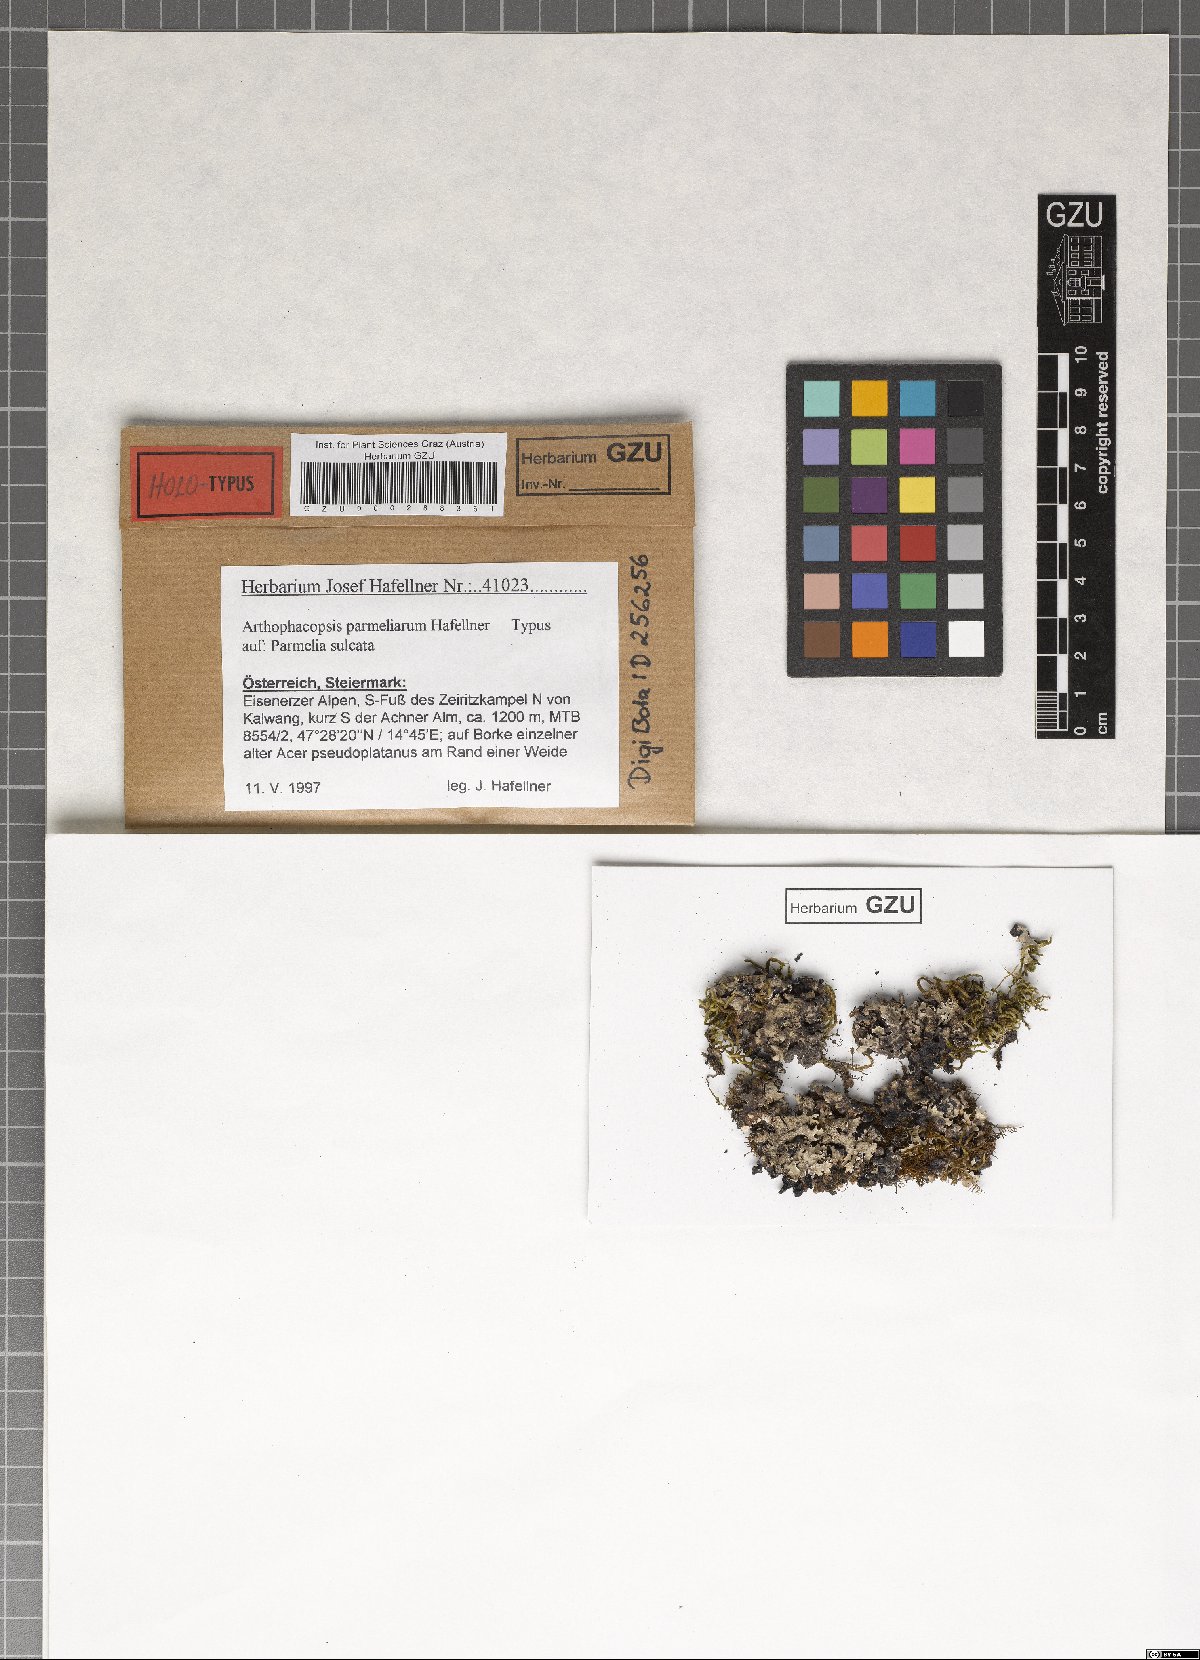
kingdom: Fungi
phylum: Ascomycota
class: Arthoniomycetes
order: Arthoniales
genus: Arthophacopsis
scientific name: Arthophacopsis parmeliarum
